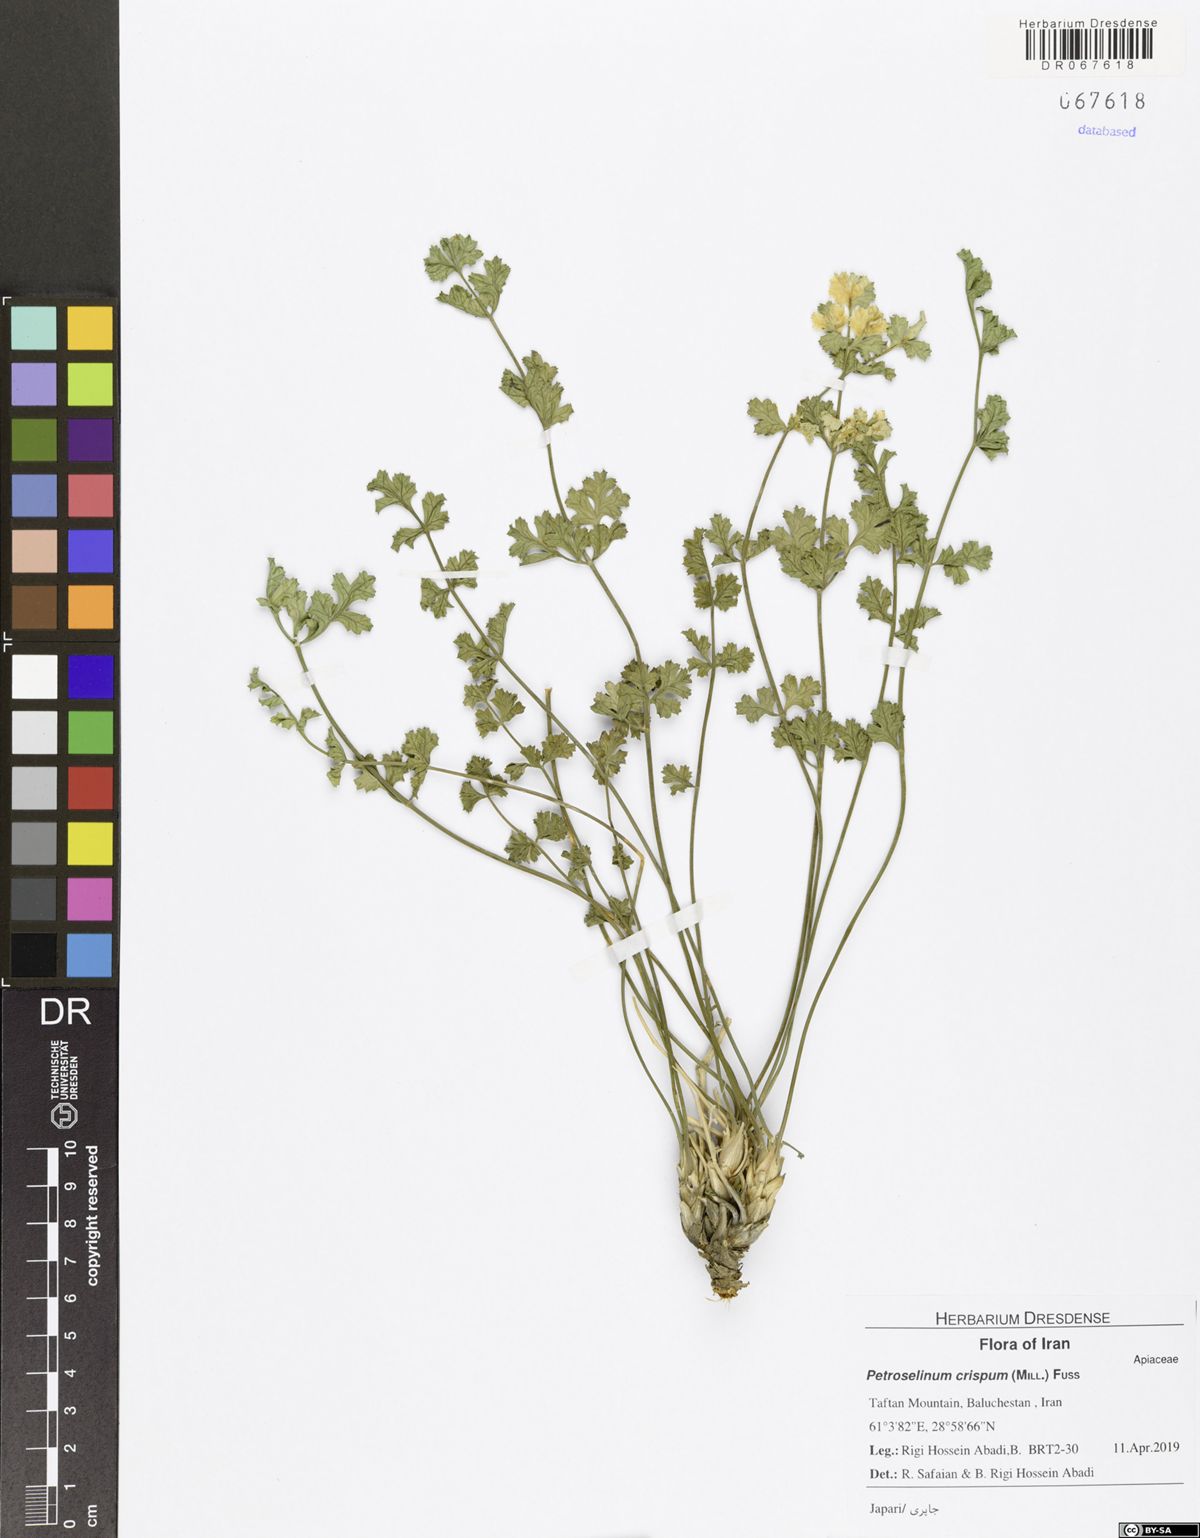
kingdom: Plantae
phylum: Tracheophyta
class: Magnoliopsida
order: Apiales
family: Apiaceae
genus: Petroselinum
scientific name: Petroselinum crispum
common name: Parsley
